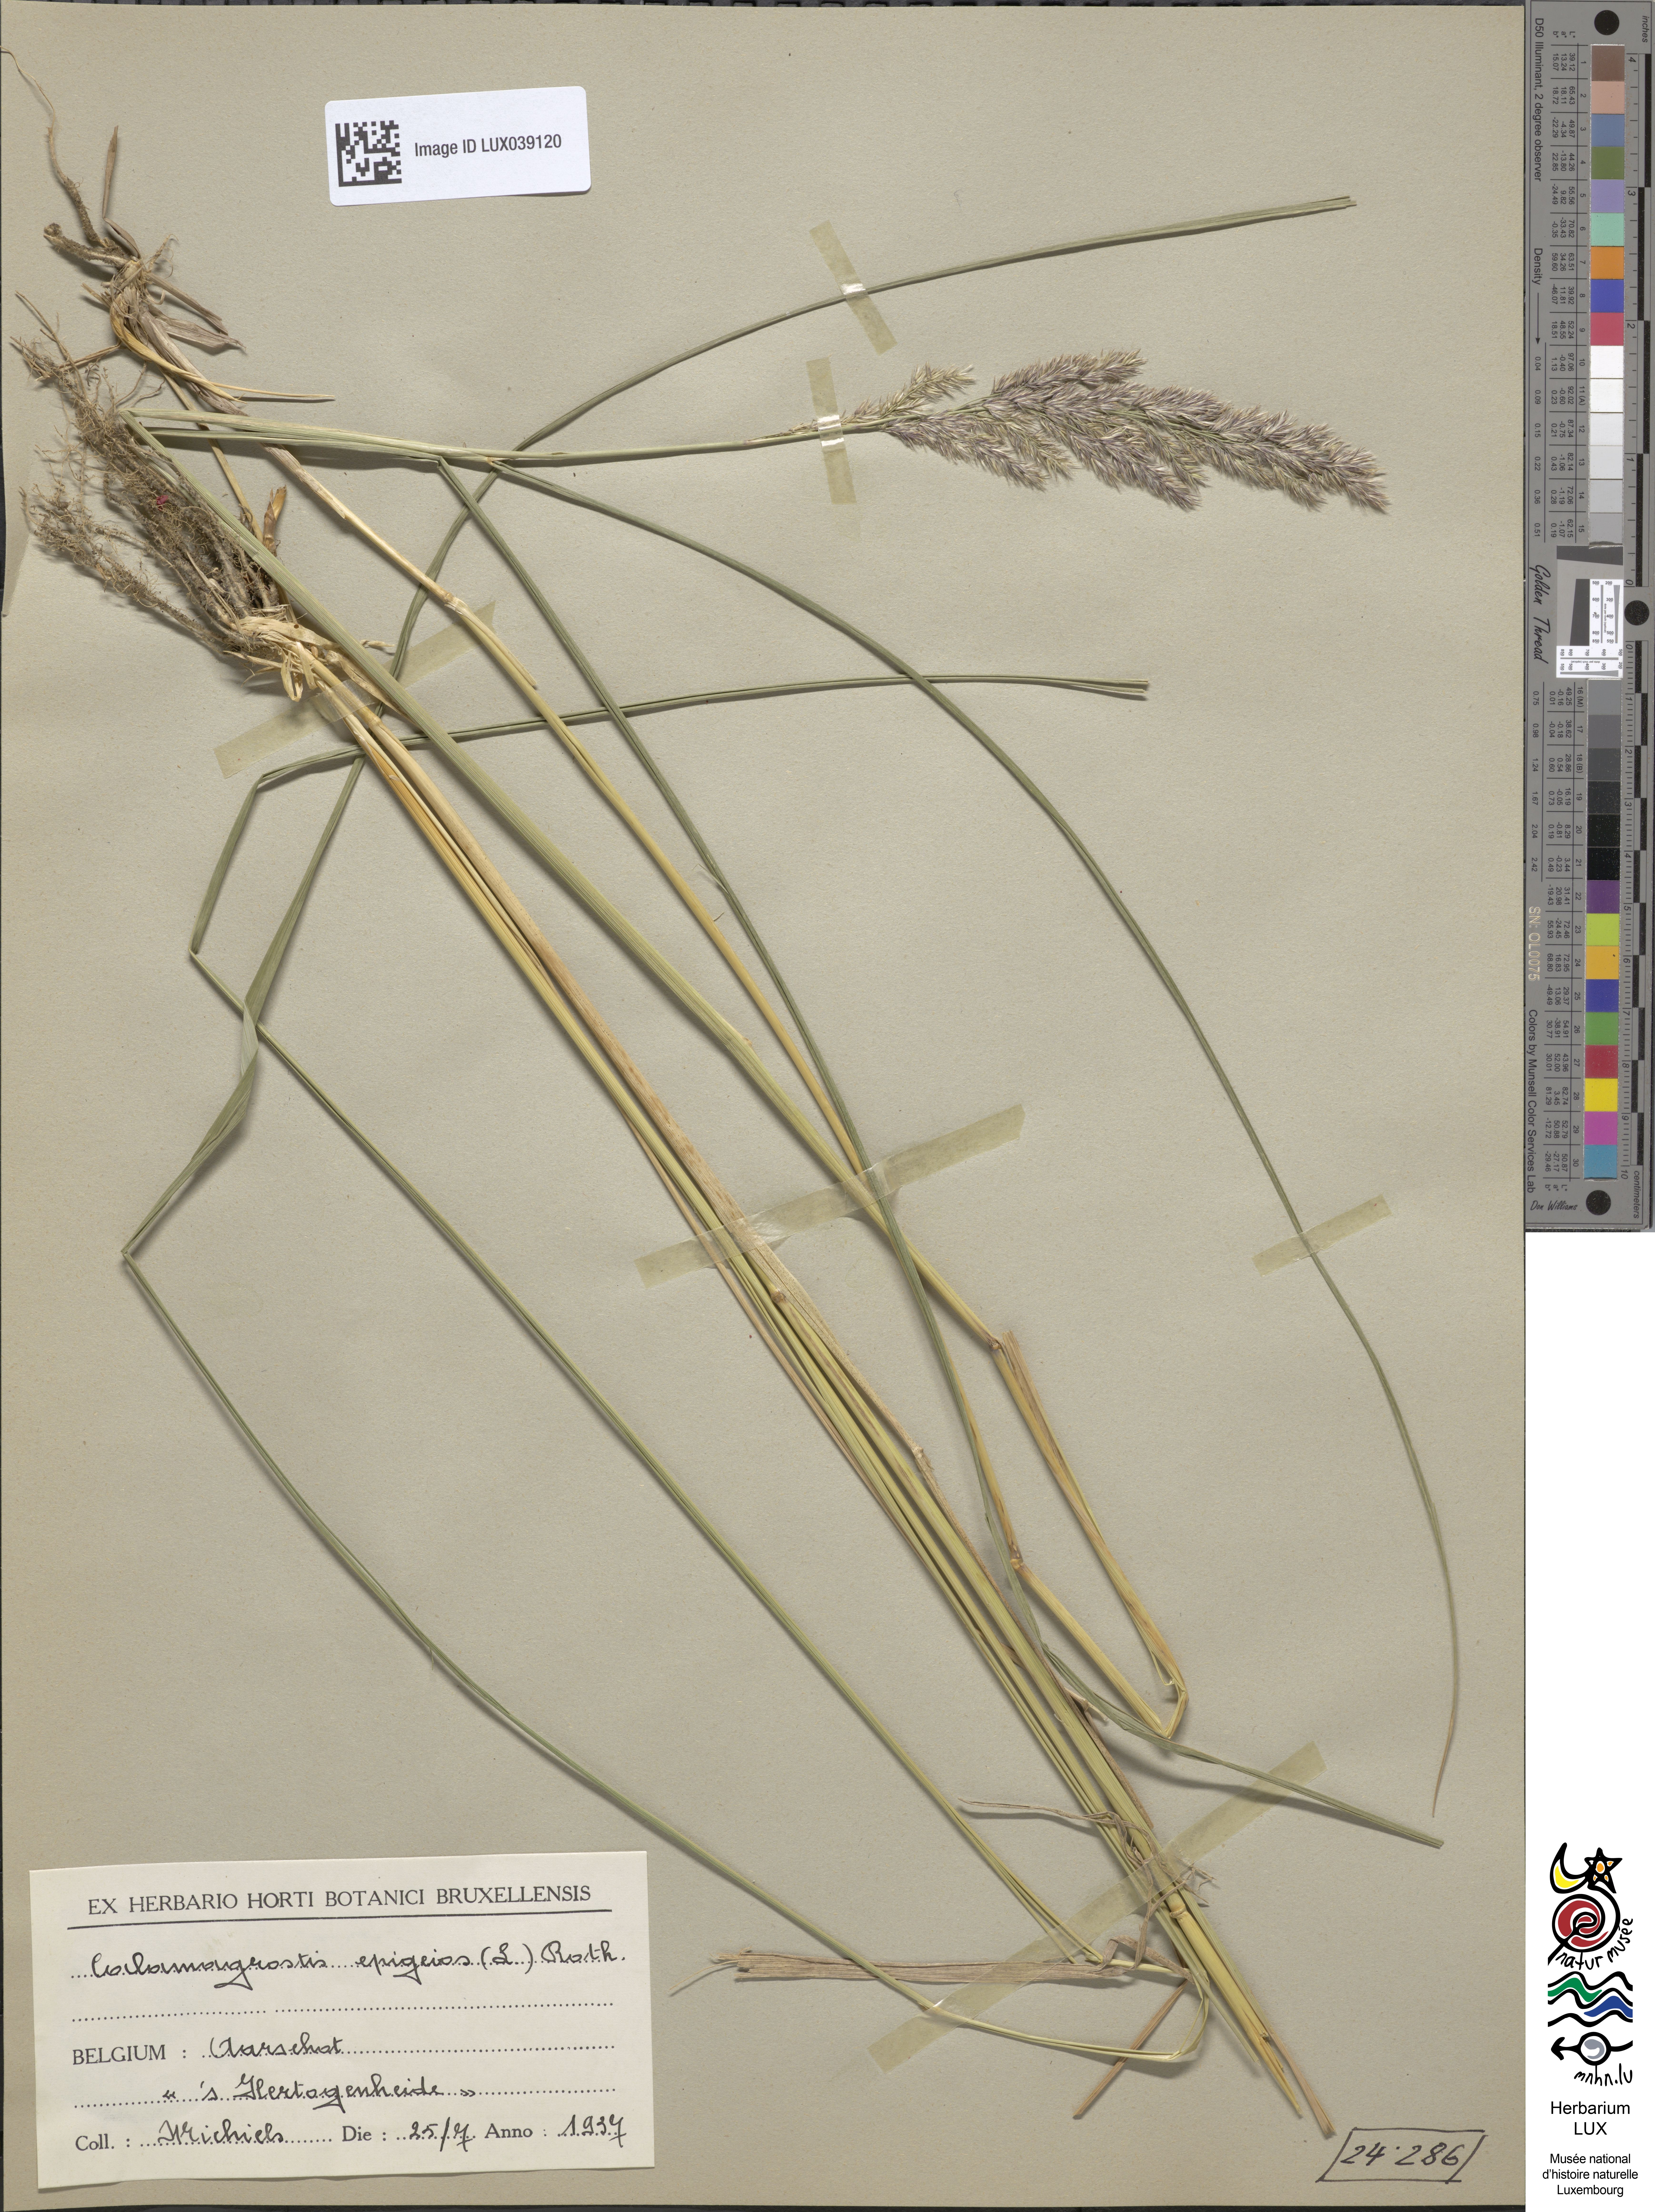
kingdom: Plantae
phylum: Tracheophyta
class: Liliopsida
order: Poales
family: Poaceae
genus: Calamagrostis
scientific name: Calamagrostis epigejos
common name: Wood small-reed
